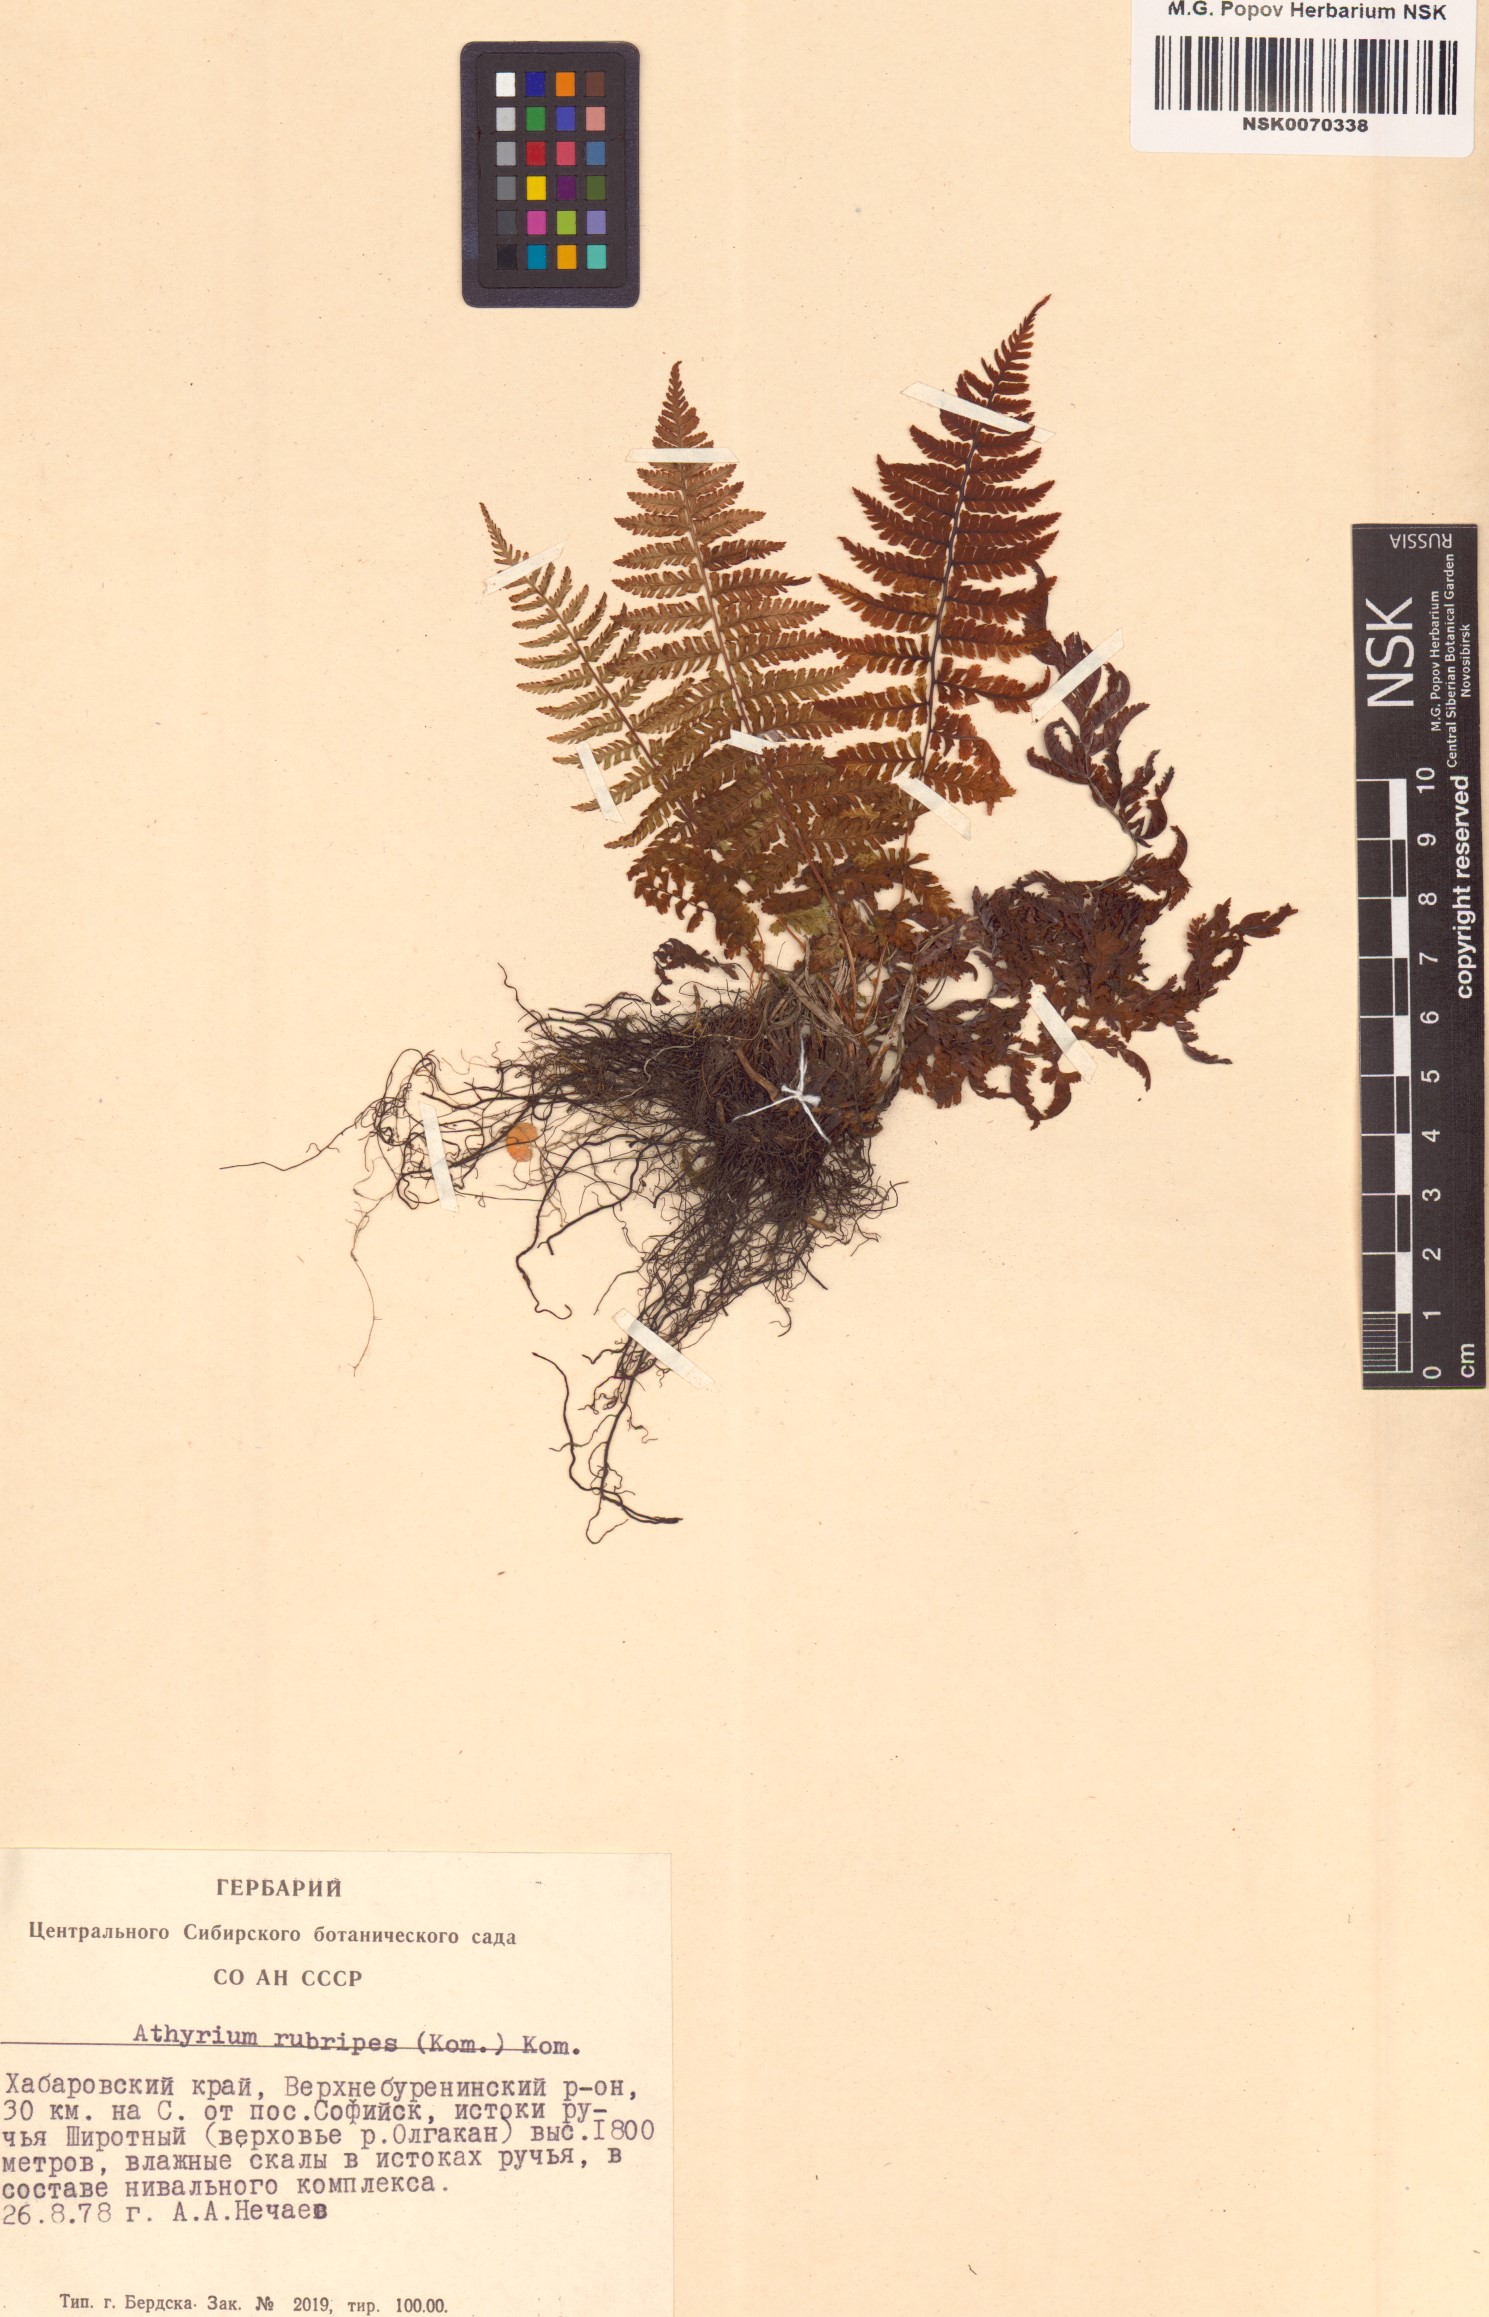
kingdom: Plantae
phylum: Tracheophyta
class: Polypodiopsida
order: Polypodiales
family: Athyriaceae
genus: Athyrium
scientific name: Athyrium rubripes
